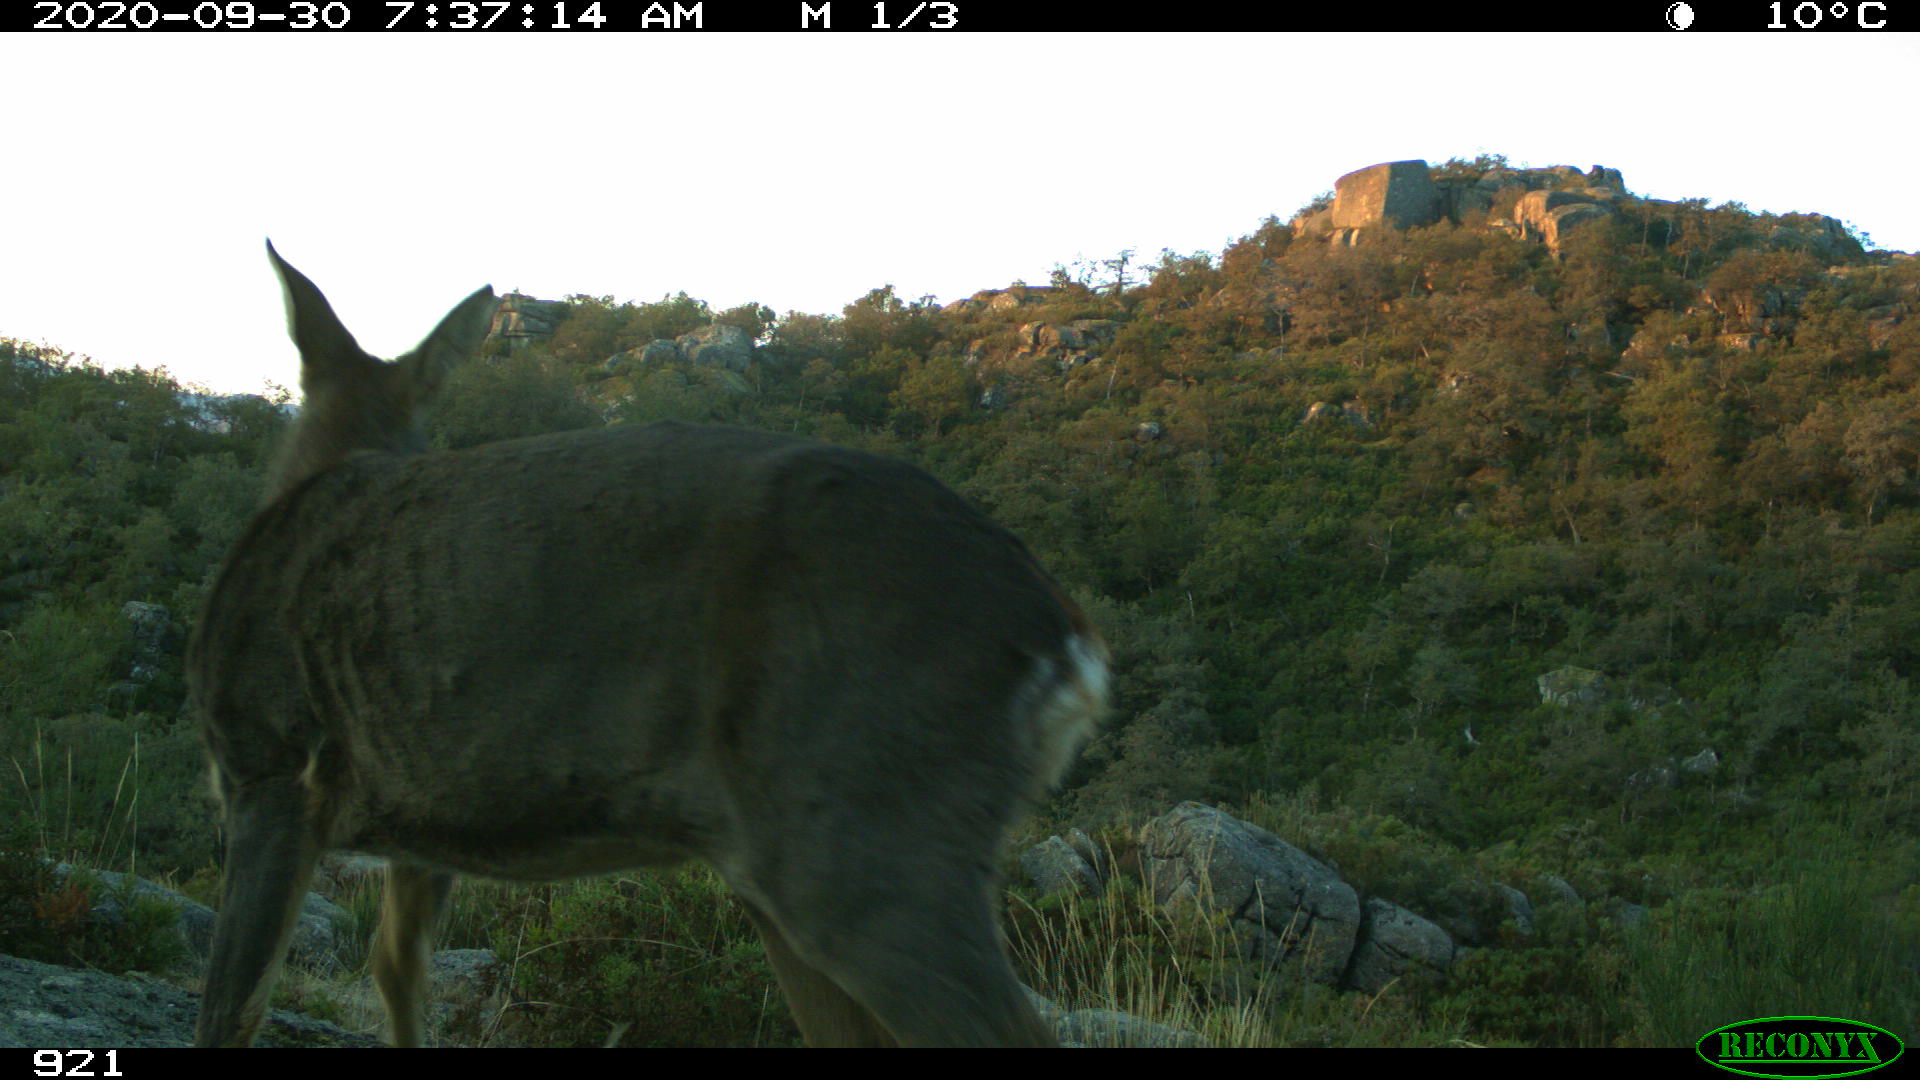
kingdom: Animalia
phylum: Chordata
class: Mammalia
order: Artiodactyla
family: Cervidae
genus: Capreolus
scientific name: Capreolus capreolus
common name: Western roe deer
